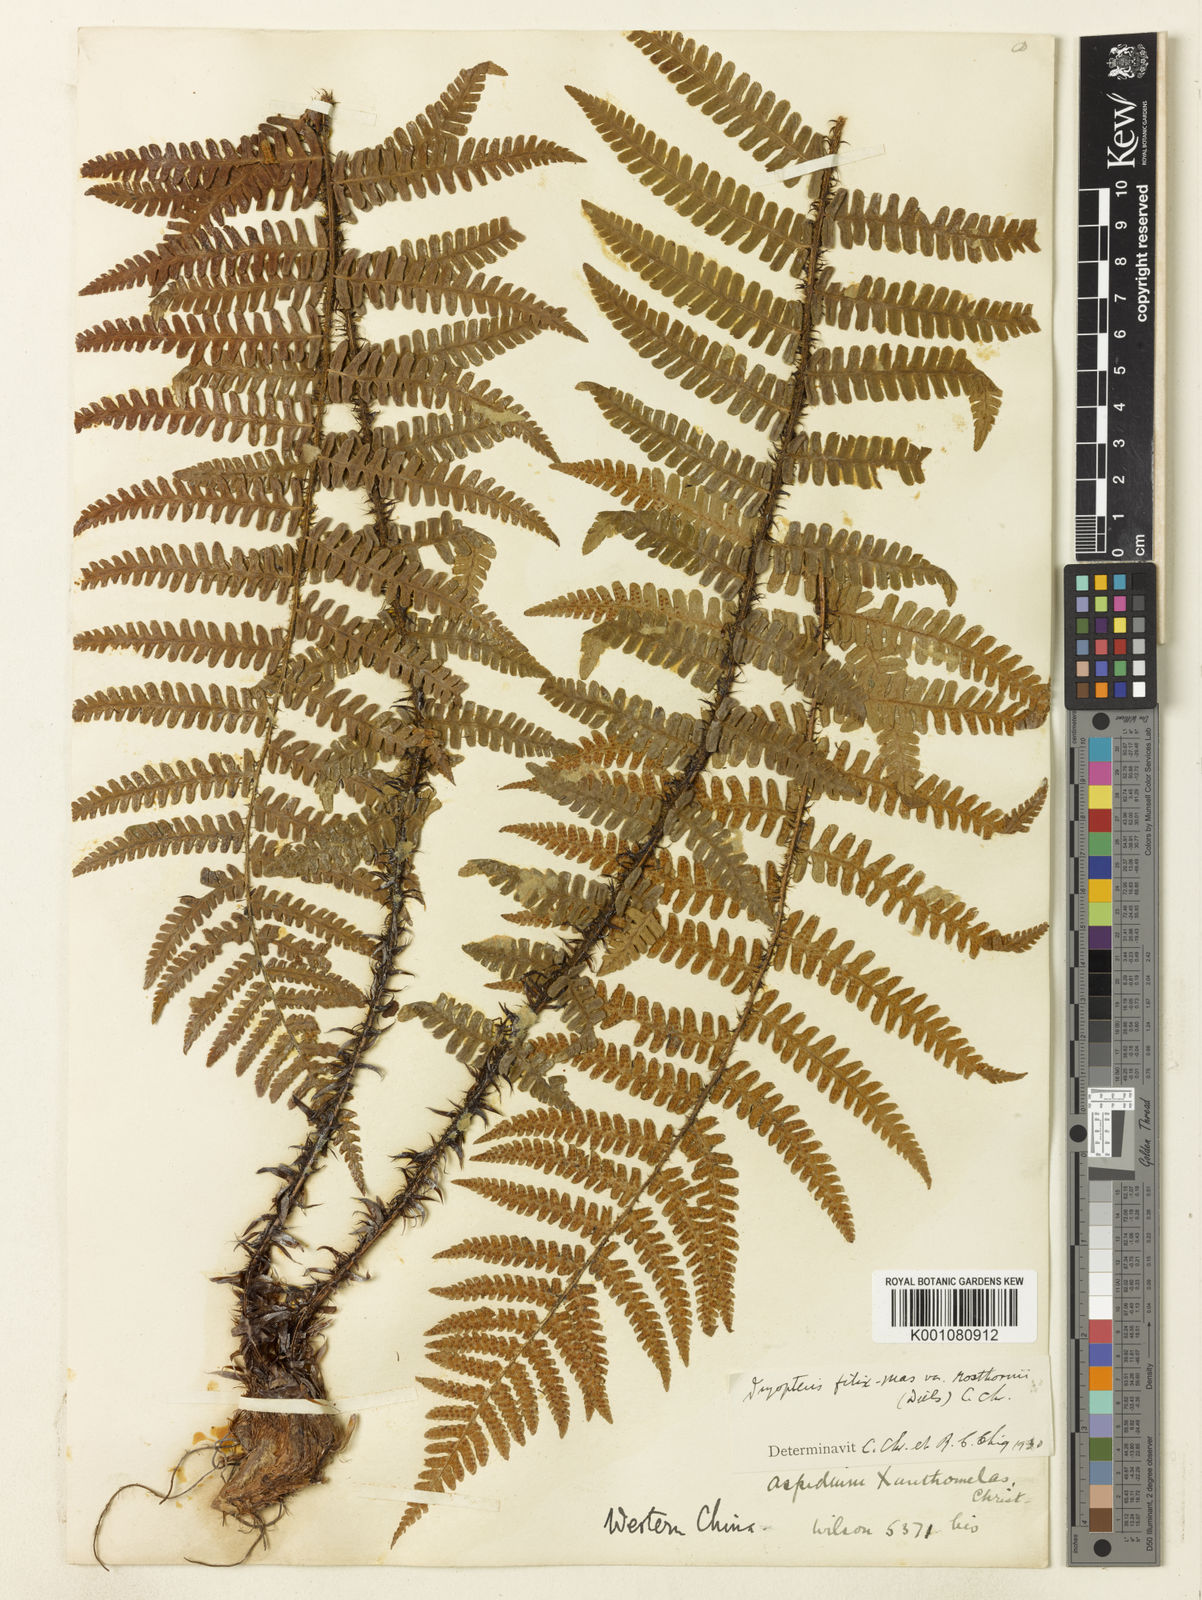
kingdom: Plantae
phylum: Tracheophyta
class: Polypodiopsida
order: Polypodiales
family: Dryopteridaceae
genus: Dryopteris
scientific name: Dryopteris rosthornii
